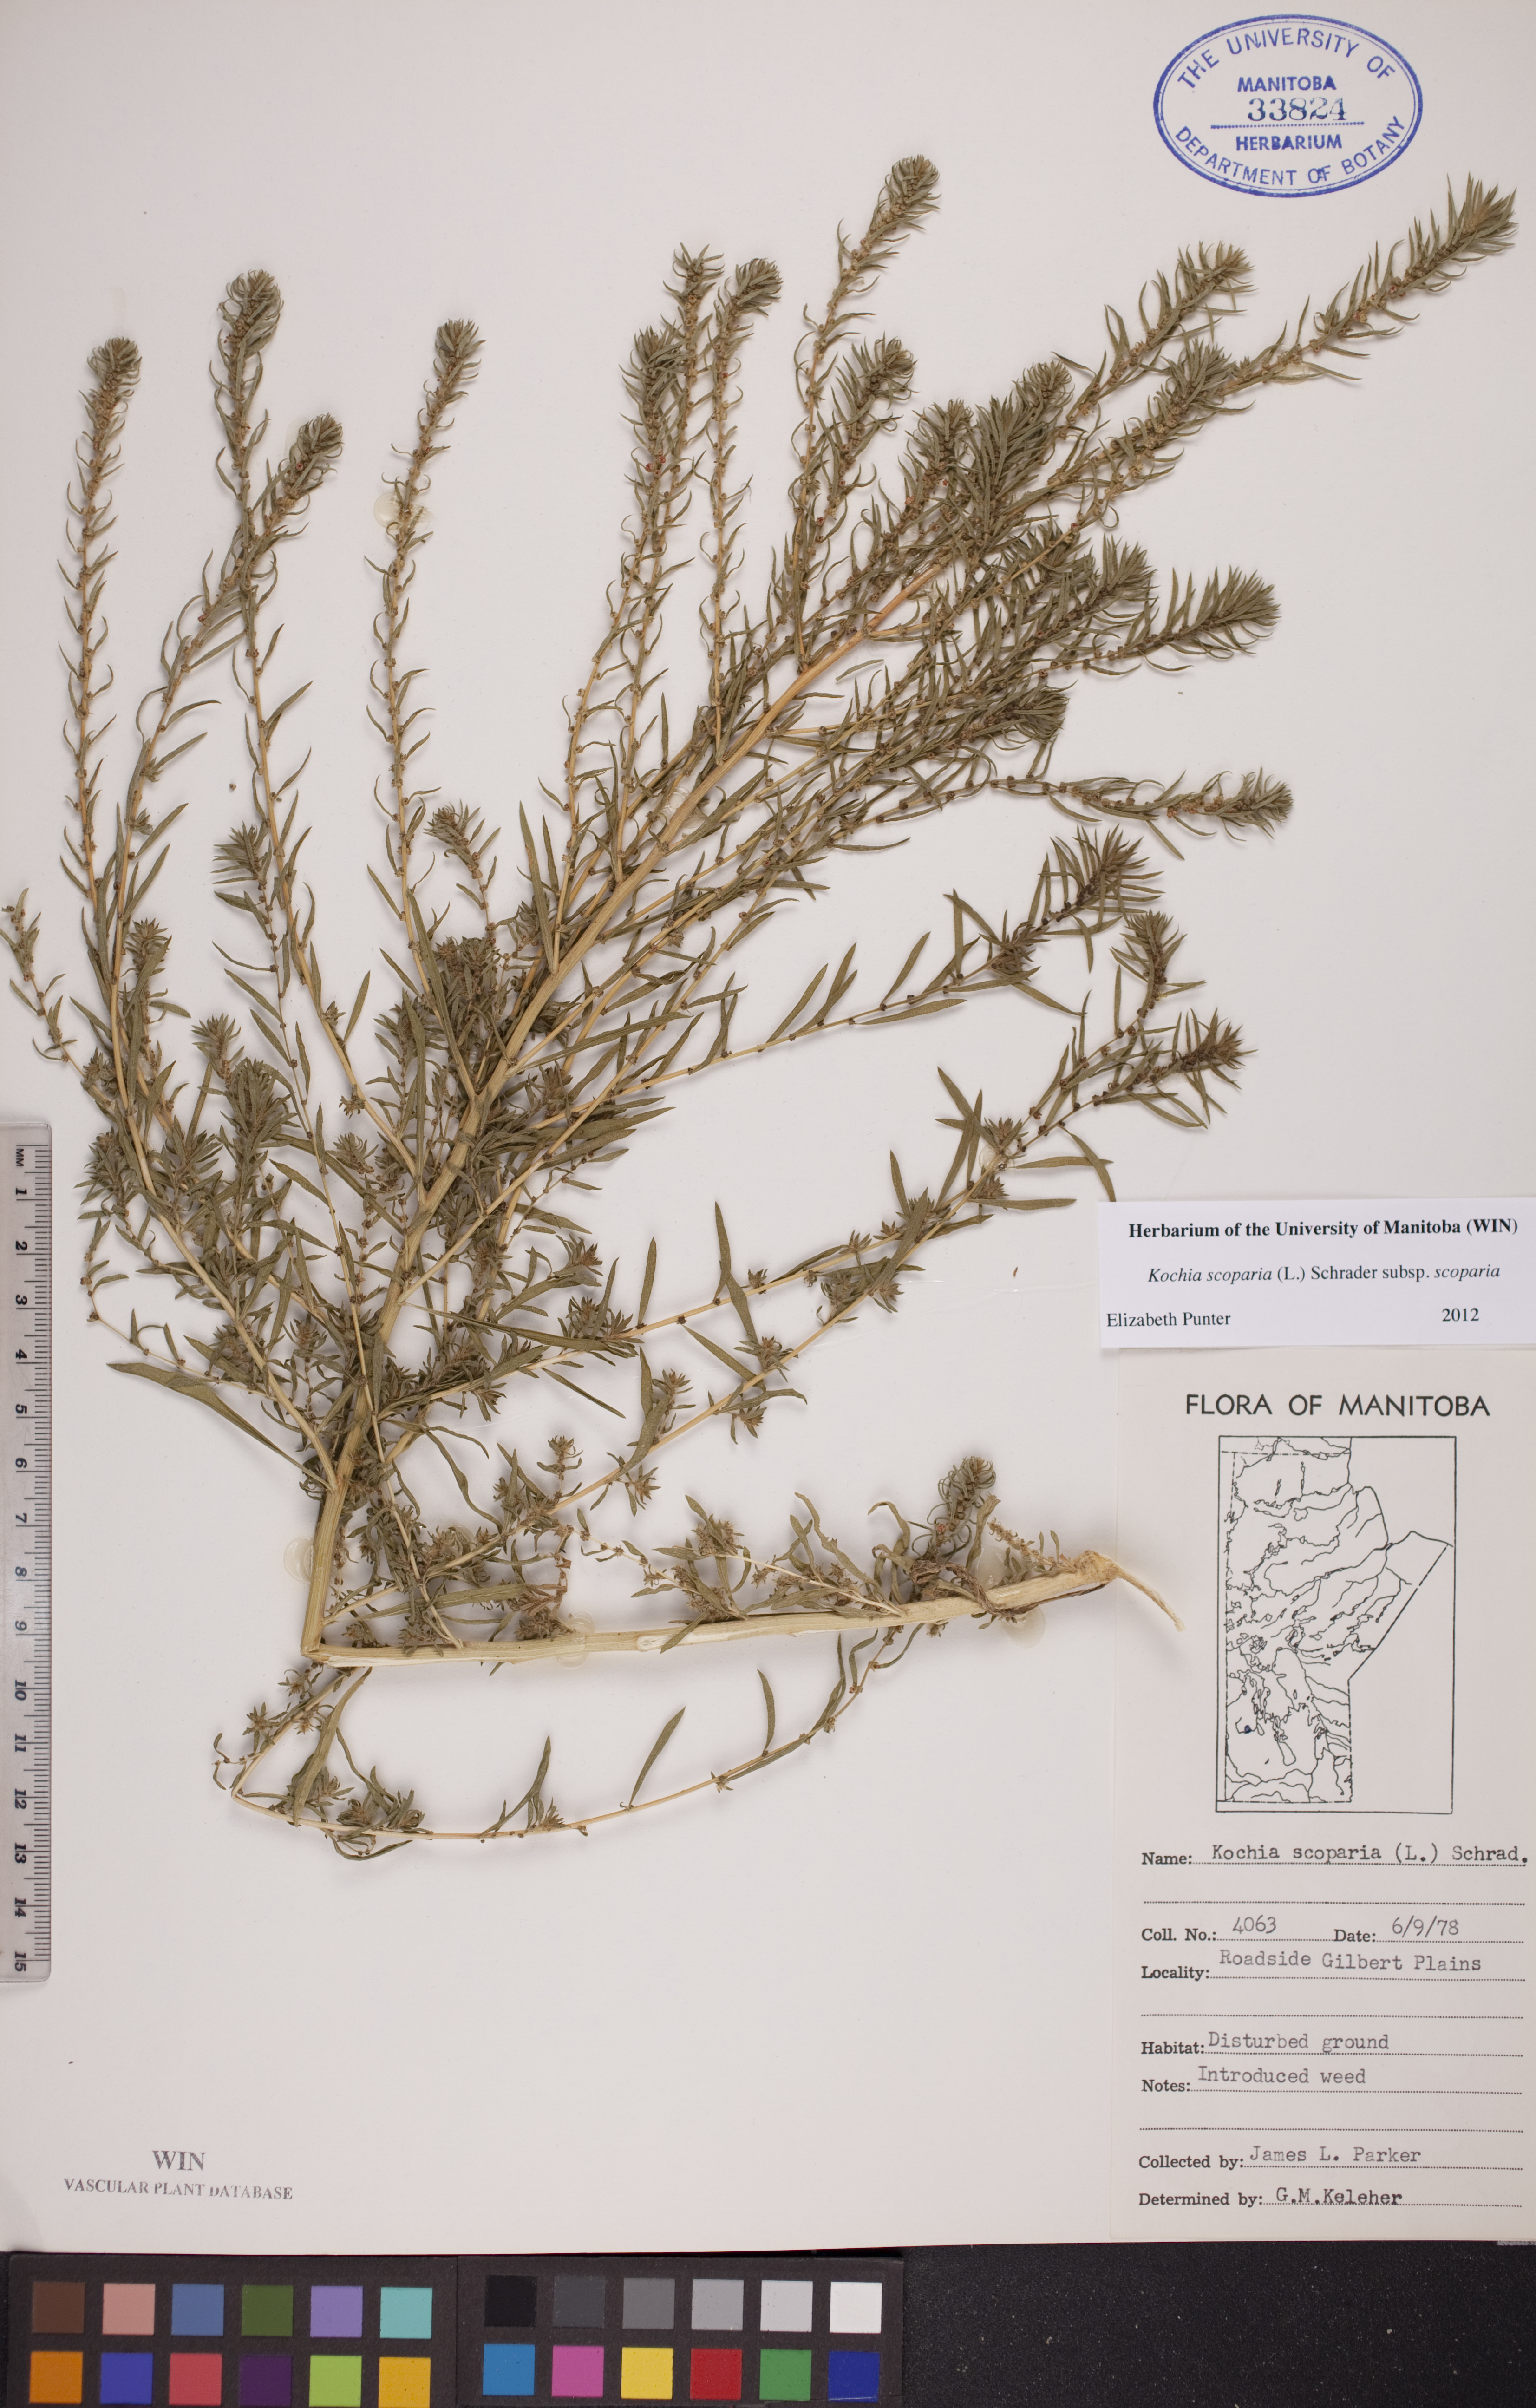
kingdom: Plantae
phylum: Tracheophyta
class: Magnoliopsida
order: Caryophyllales
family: Amaranthaceae
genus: Bassia
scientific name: Bassia scoparia
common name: Belvedere
